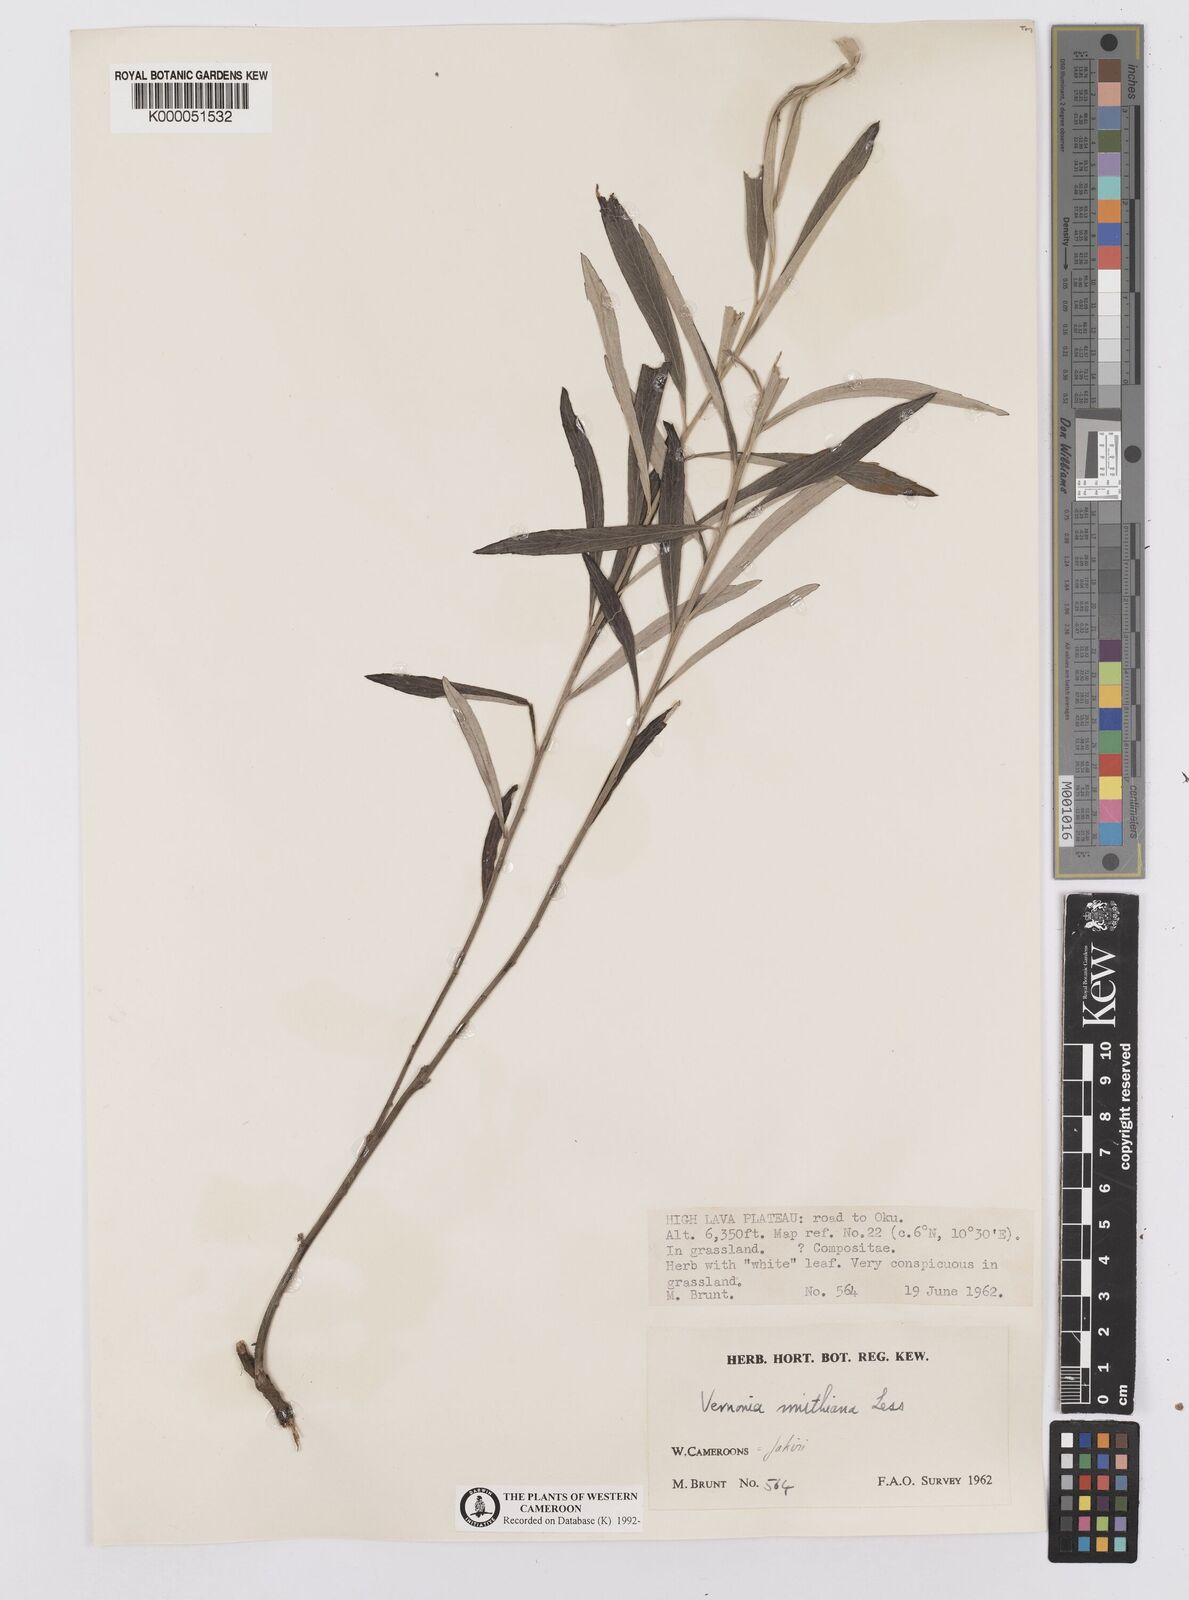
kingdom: Plantae
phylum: Tracheophyta
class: Magnoliopsida
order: Asterales
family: Asteraceae
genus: Hilliardiella
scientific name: Hilliardiella smithiana
